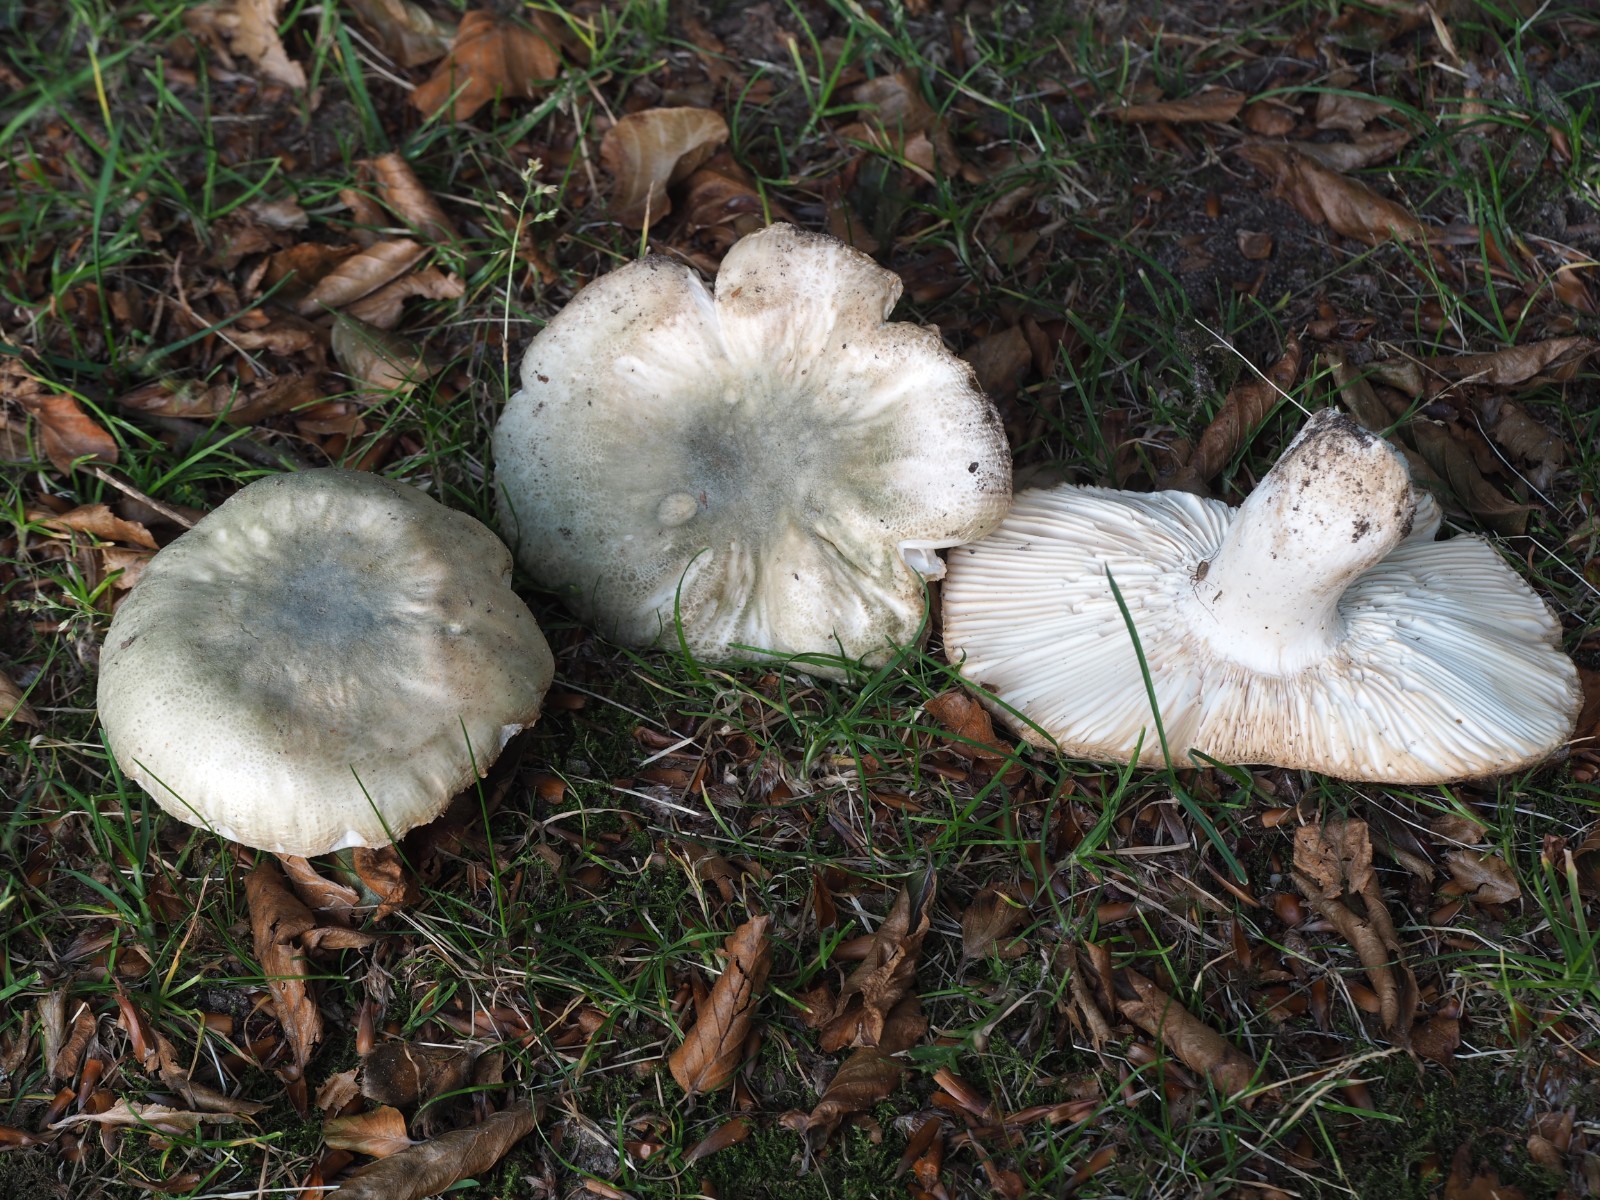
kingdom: Fungi
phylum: Basidiomycota
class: Agaricomycetes
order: Russulales
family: Russulaceae
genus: Russula
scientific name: Russula virescens
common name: spanskgrøn skørhat
